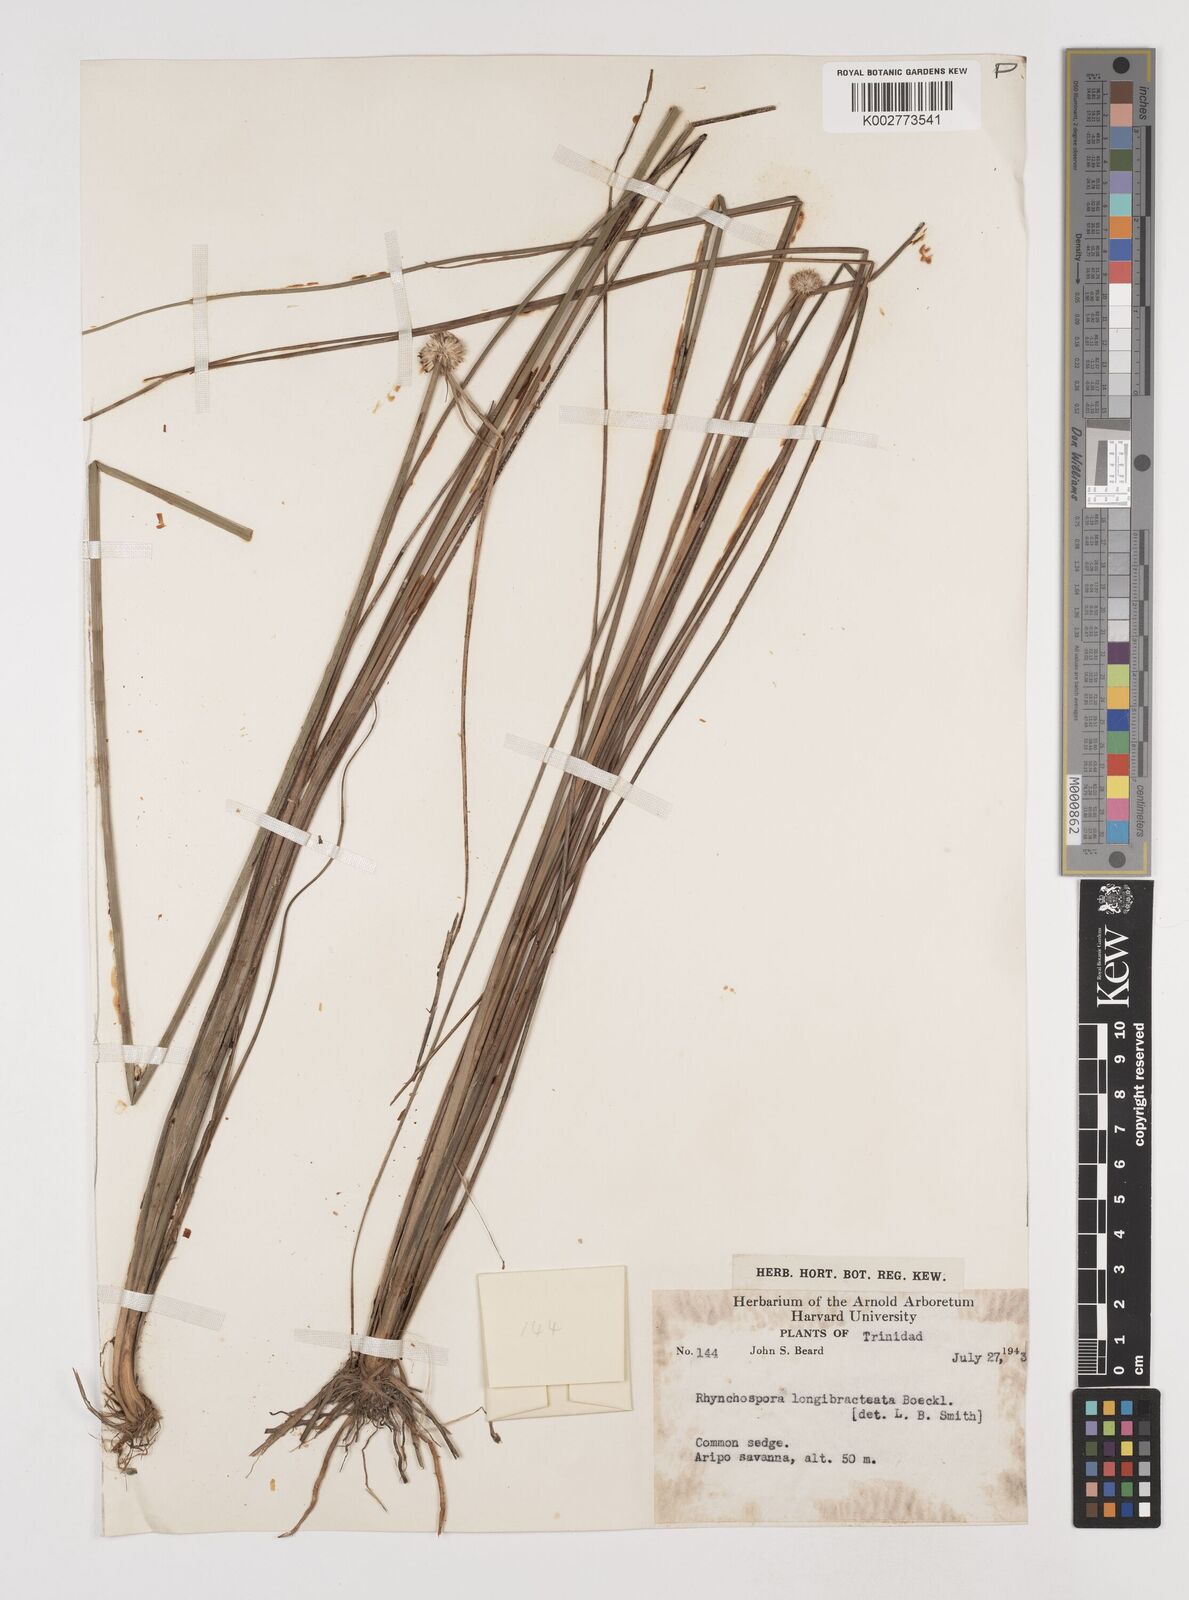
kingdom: Plantae
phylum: Tracheophyta
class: Liliopsida
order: Poales
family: Cyperaceae
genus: Rhynchospora
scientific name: Rhynchospora longibracteata
